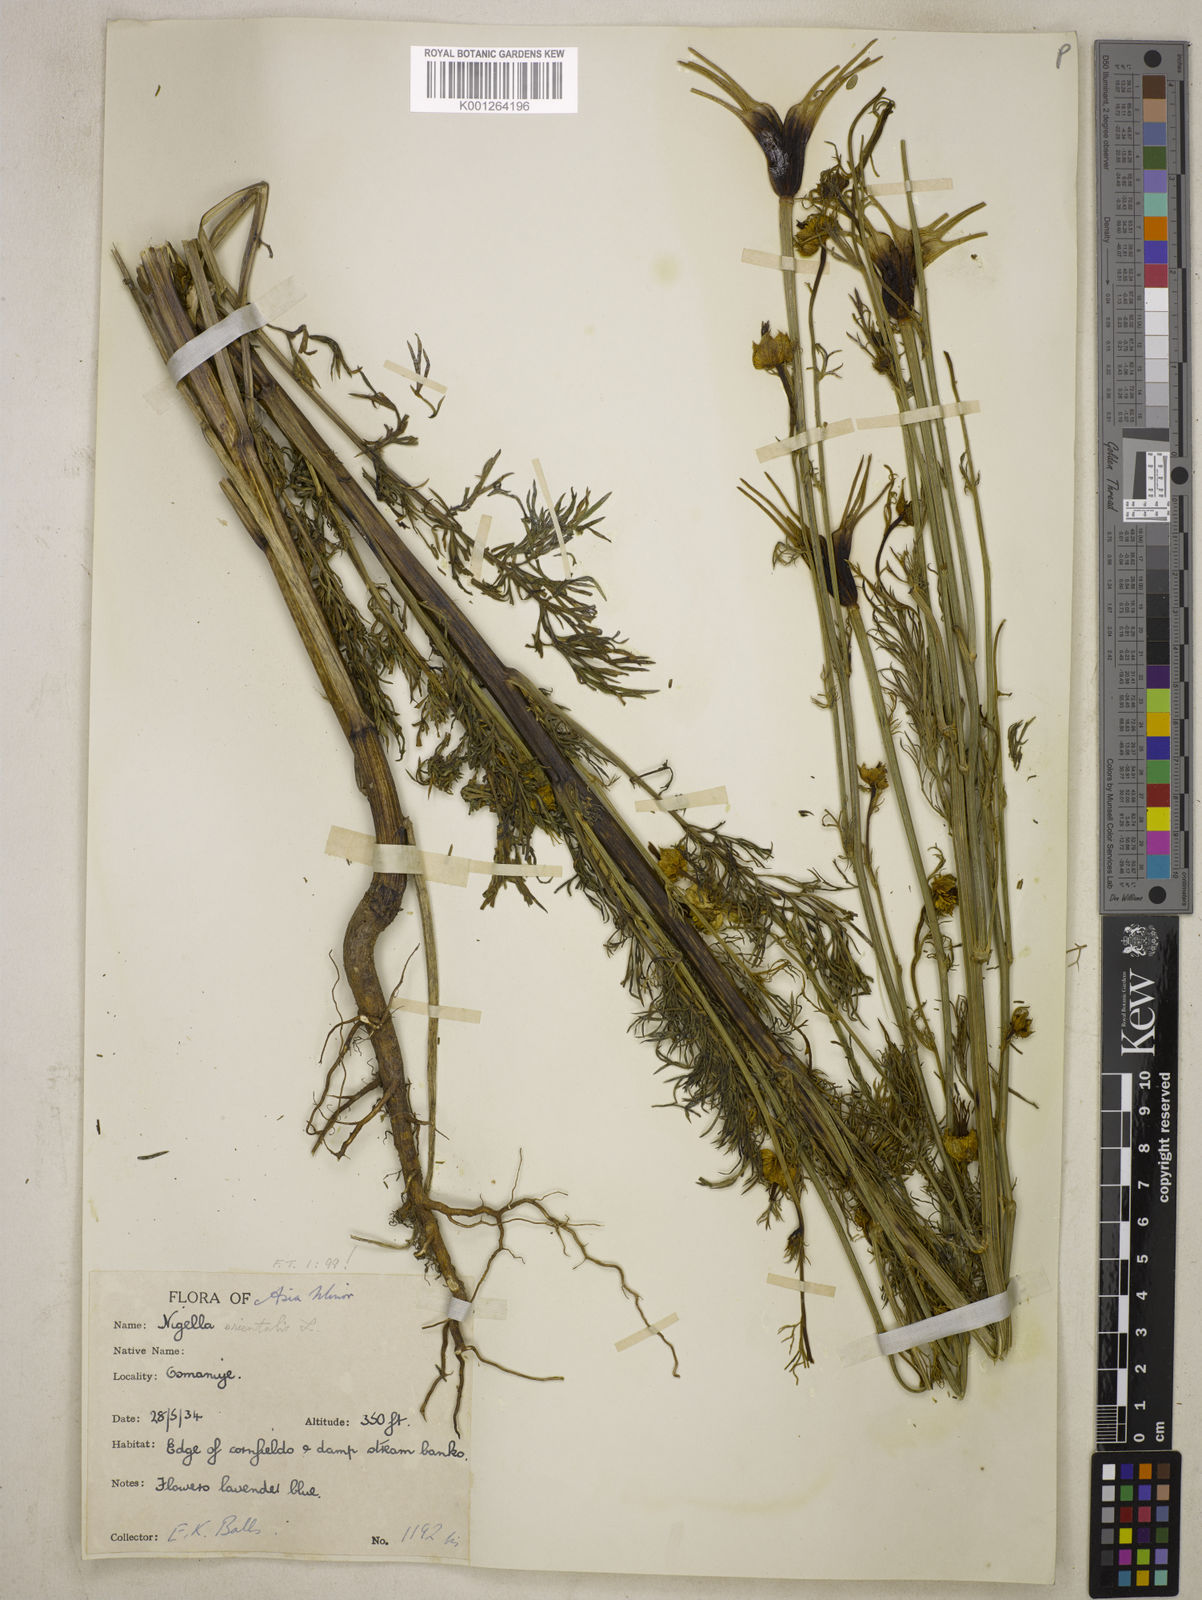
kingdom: Plantae
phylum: Tracheophyta
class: Magnoliopsida
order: Ranunculales
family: Ranunculaceae
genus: Nigella
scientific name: Nigella orientalis
